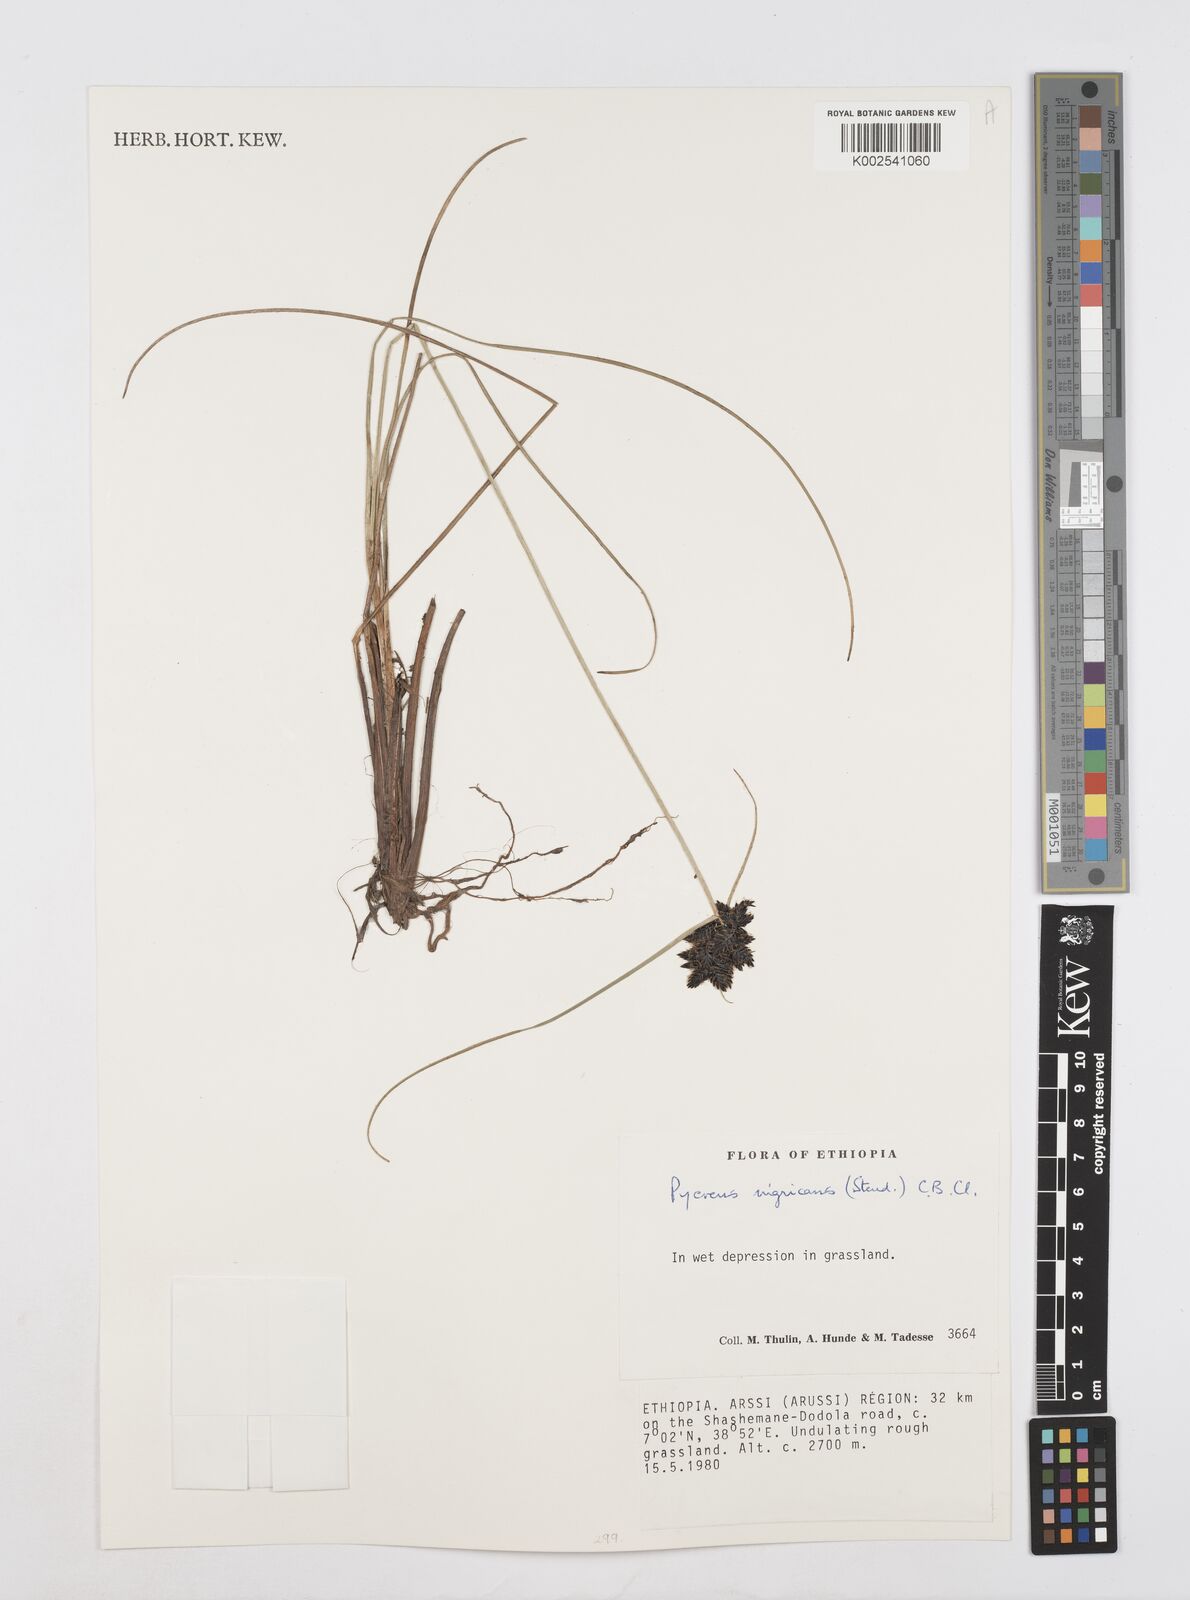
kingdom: Plantae
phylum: Tracheophyta
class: Liliopsida
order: Poales
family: Cyperaceae
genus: Cyperus
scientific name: Cyperus nigricans
